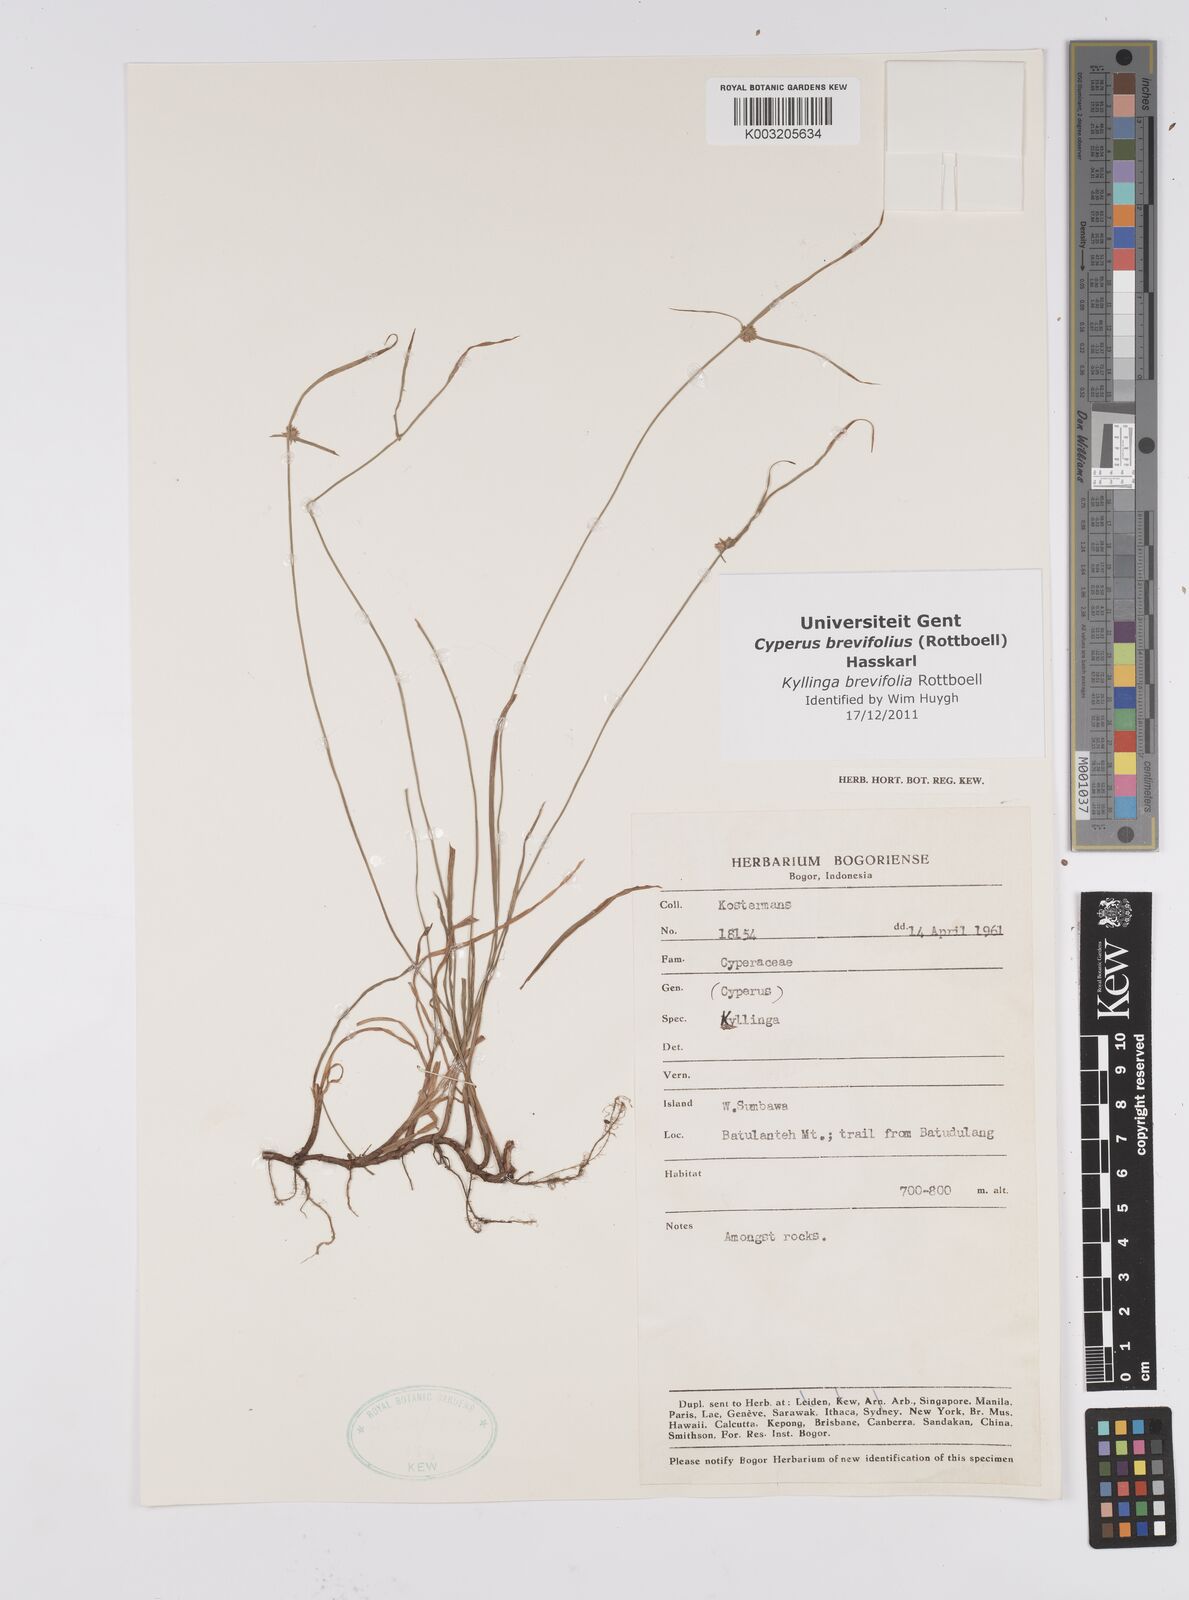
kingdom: Plantae
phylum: Tracheophyta
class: Liliopsida
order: Poales
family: Cyperaceae
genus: Cyperus
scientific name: Cyperus brevifolius
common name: Globe kyllinga
